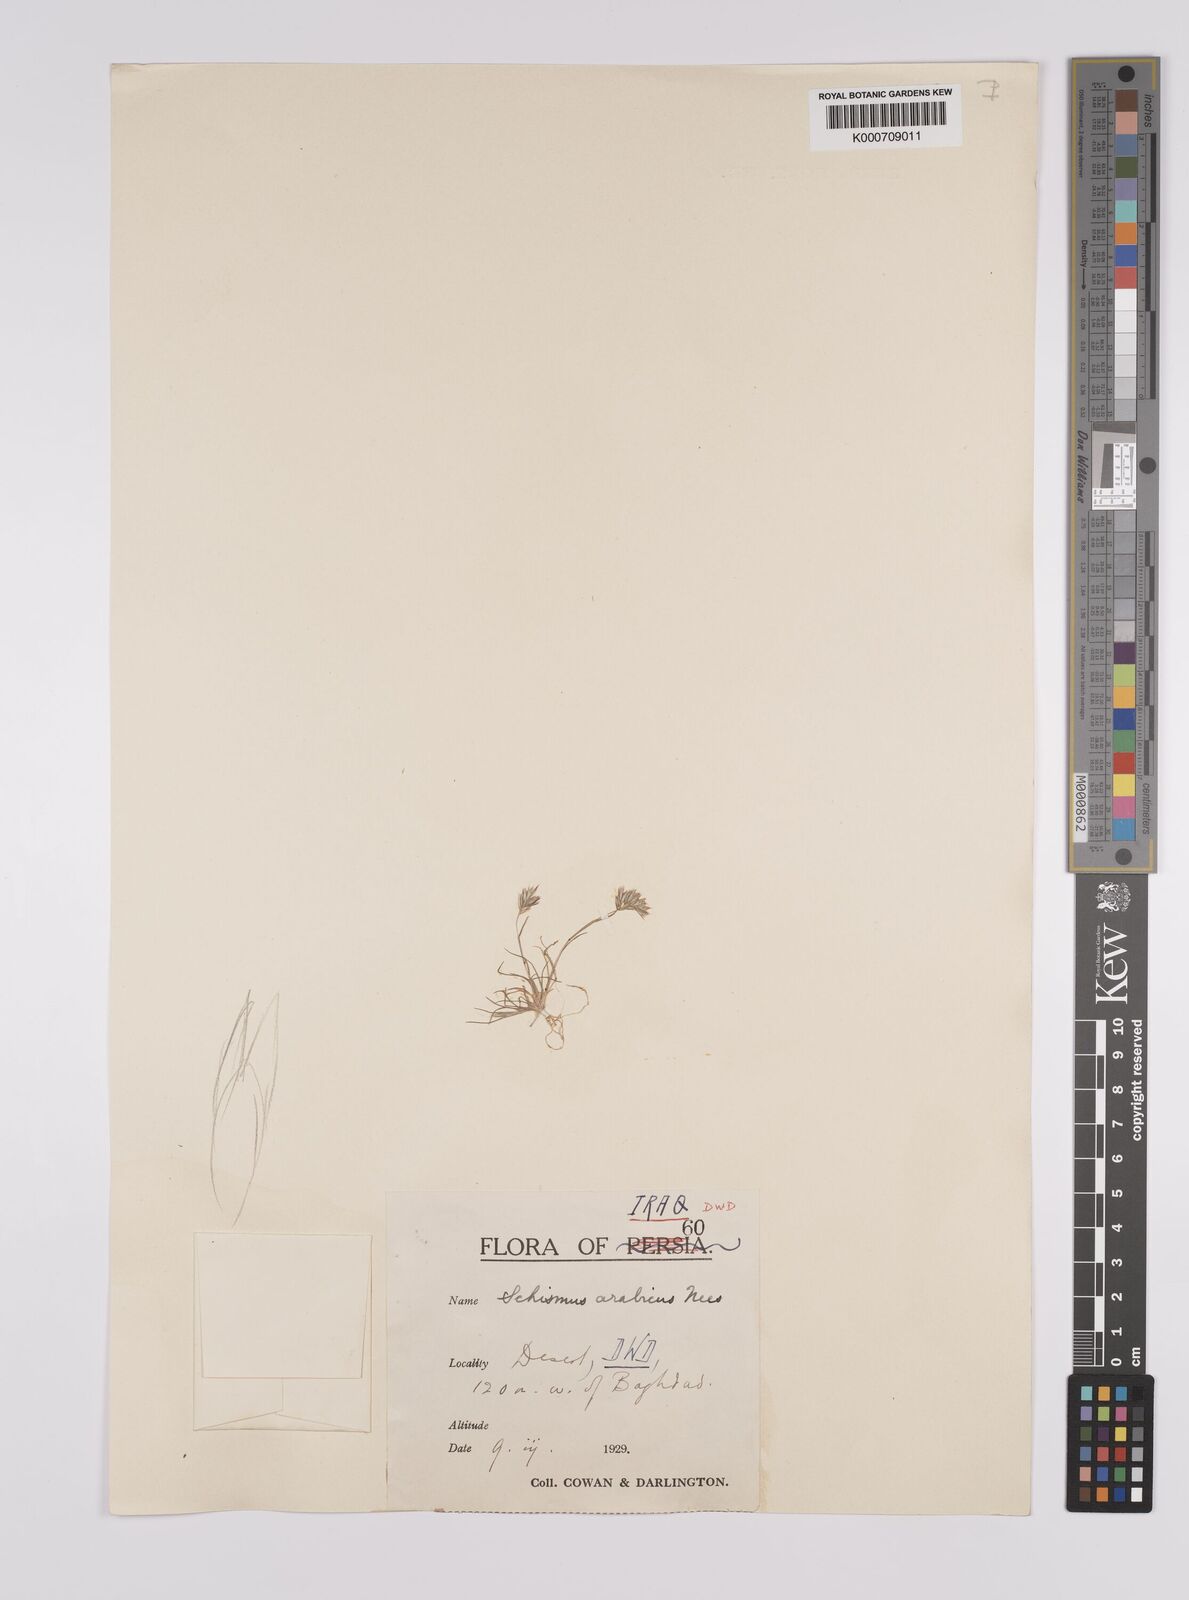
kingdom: Plantae
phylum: Tracheophyta
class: Liliopsida
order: Poales
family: Poaceae
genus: Schismus
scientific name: Schismus arabicus
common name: Arabian schismus
